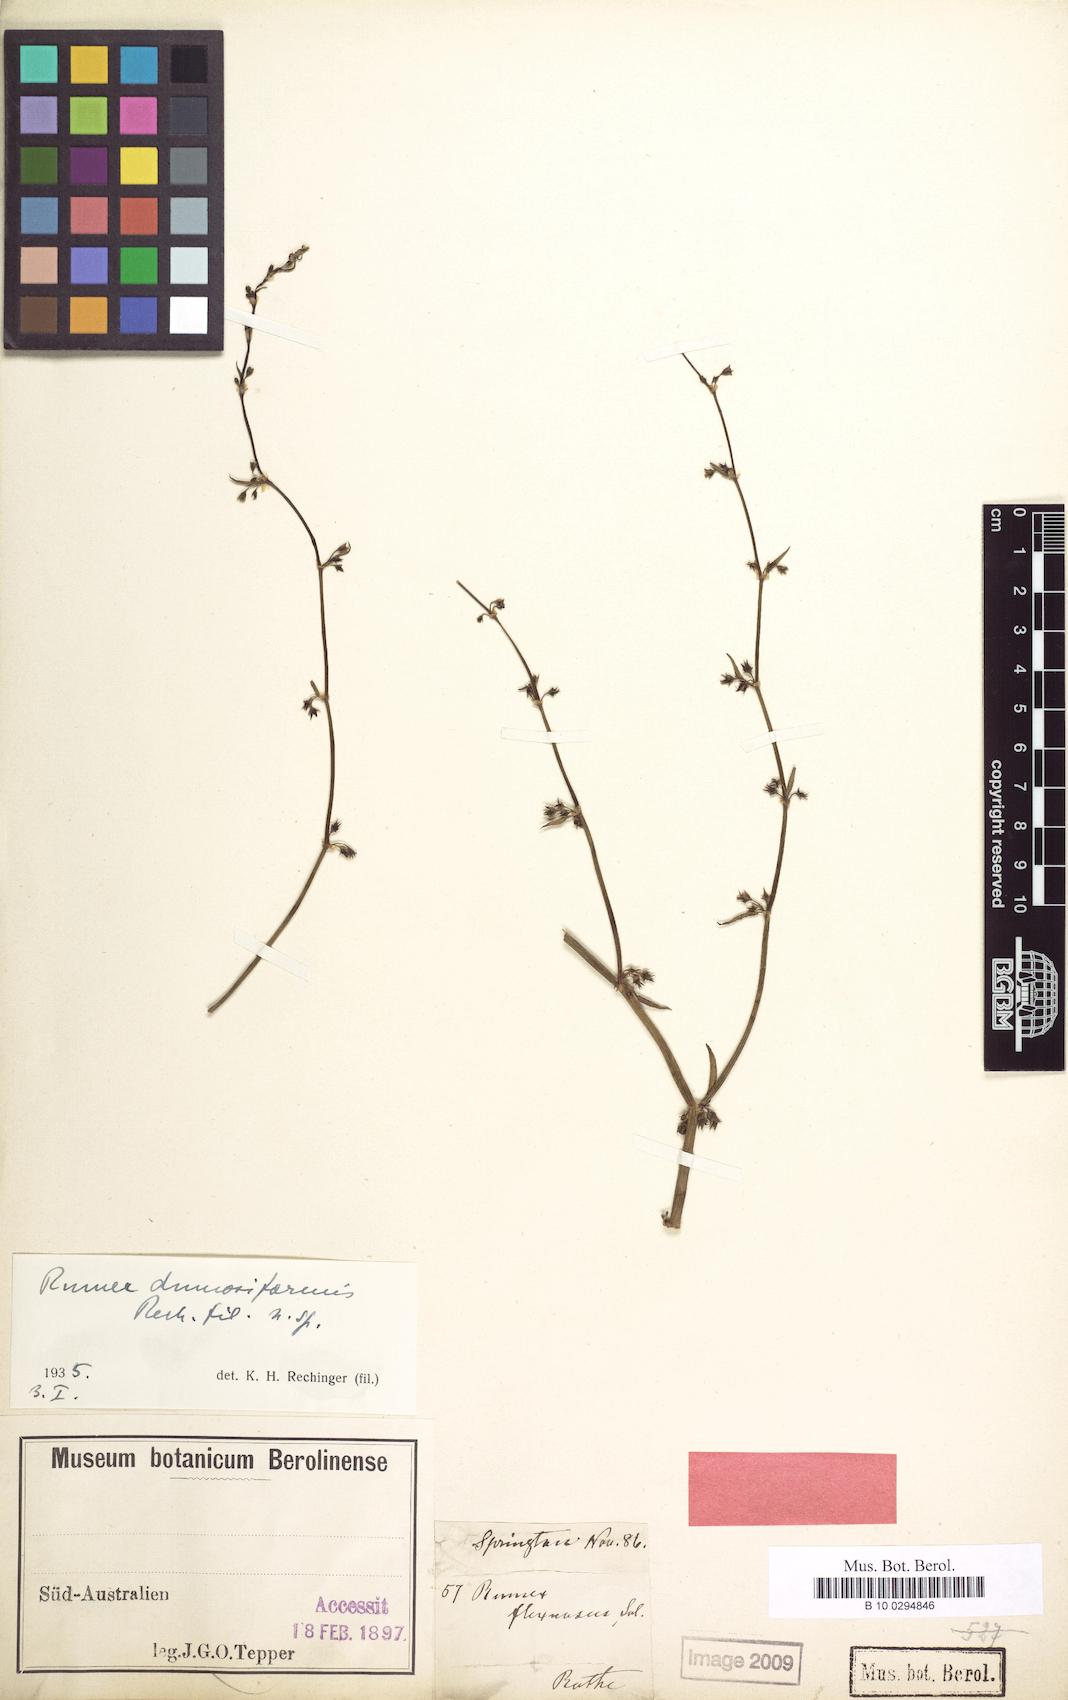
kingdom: Plantae
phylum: Tracheophyta
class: Magnoliopsida
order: Caryophyllales
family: Polygonaceae
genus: Rumex
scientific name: Rumex dumosus
